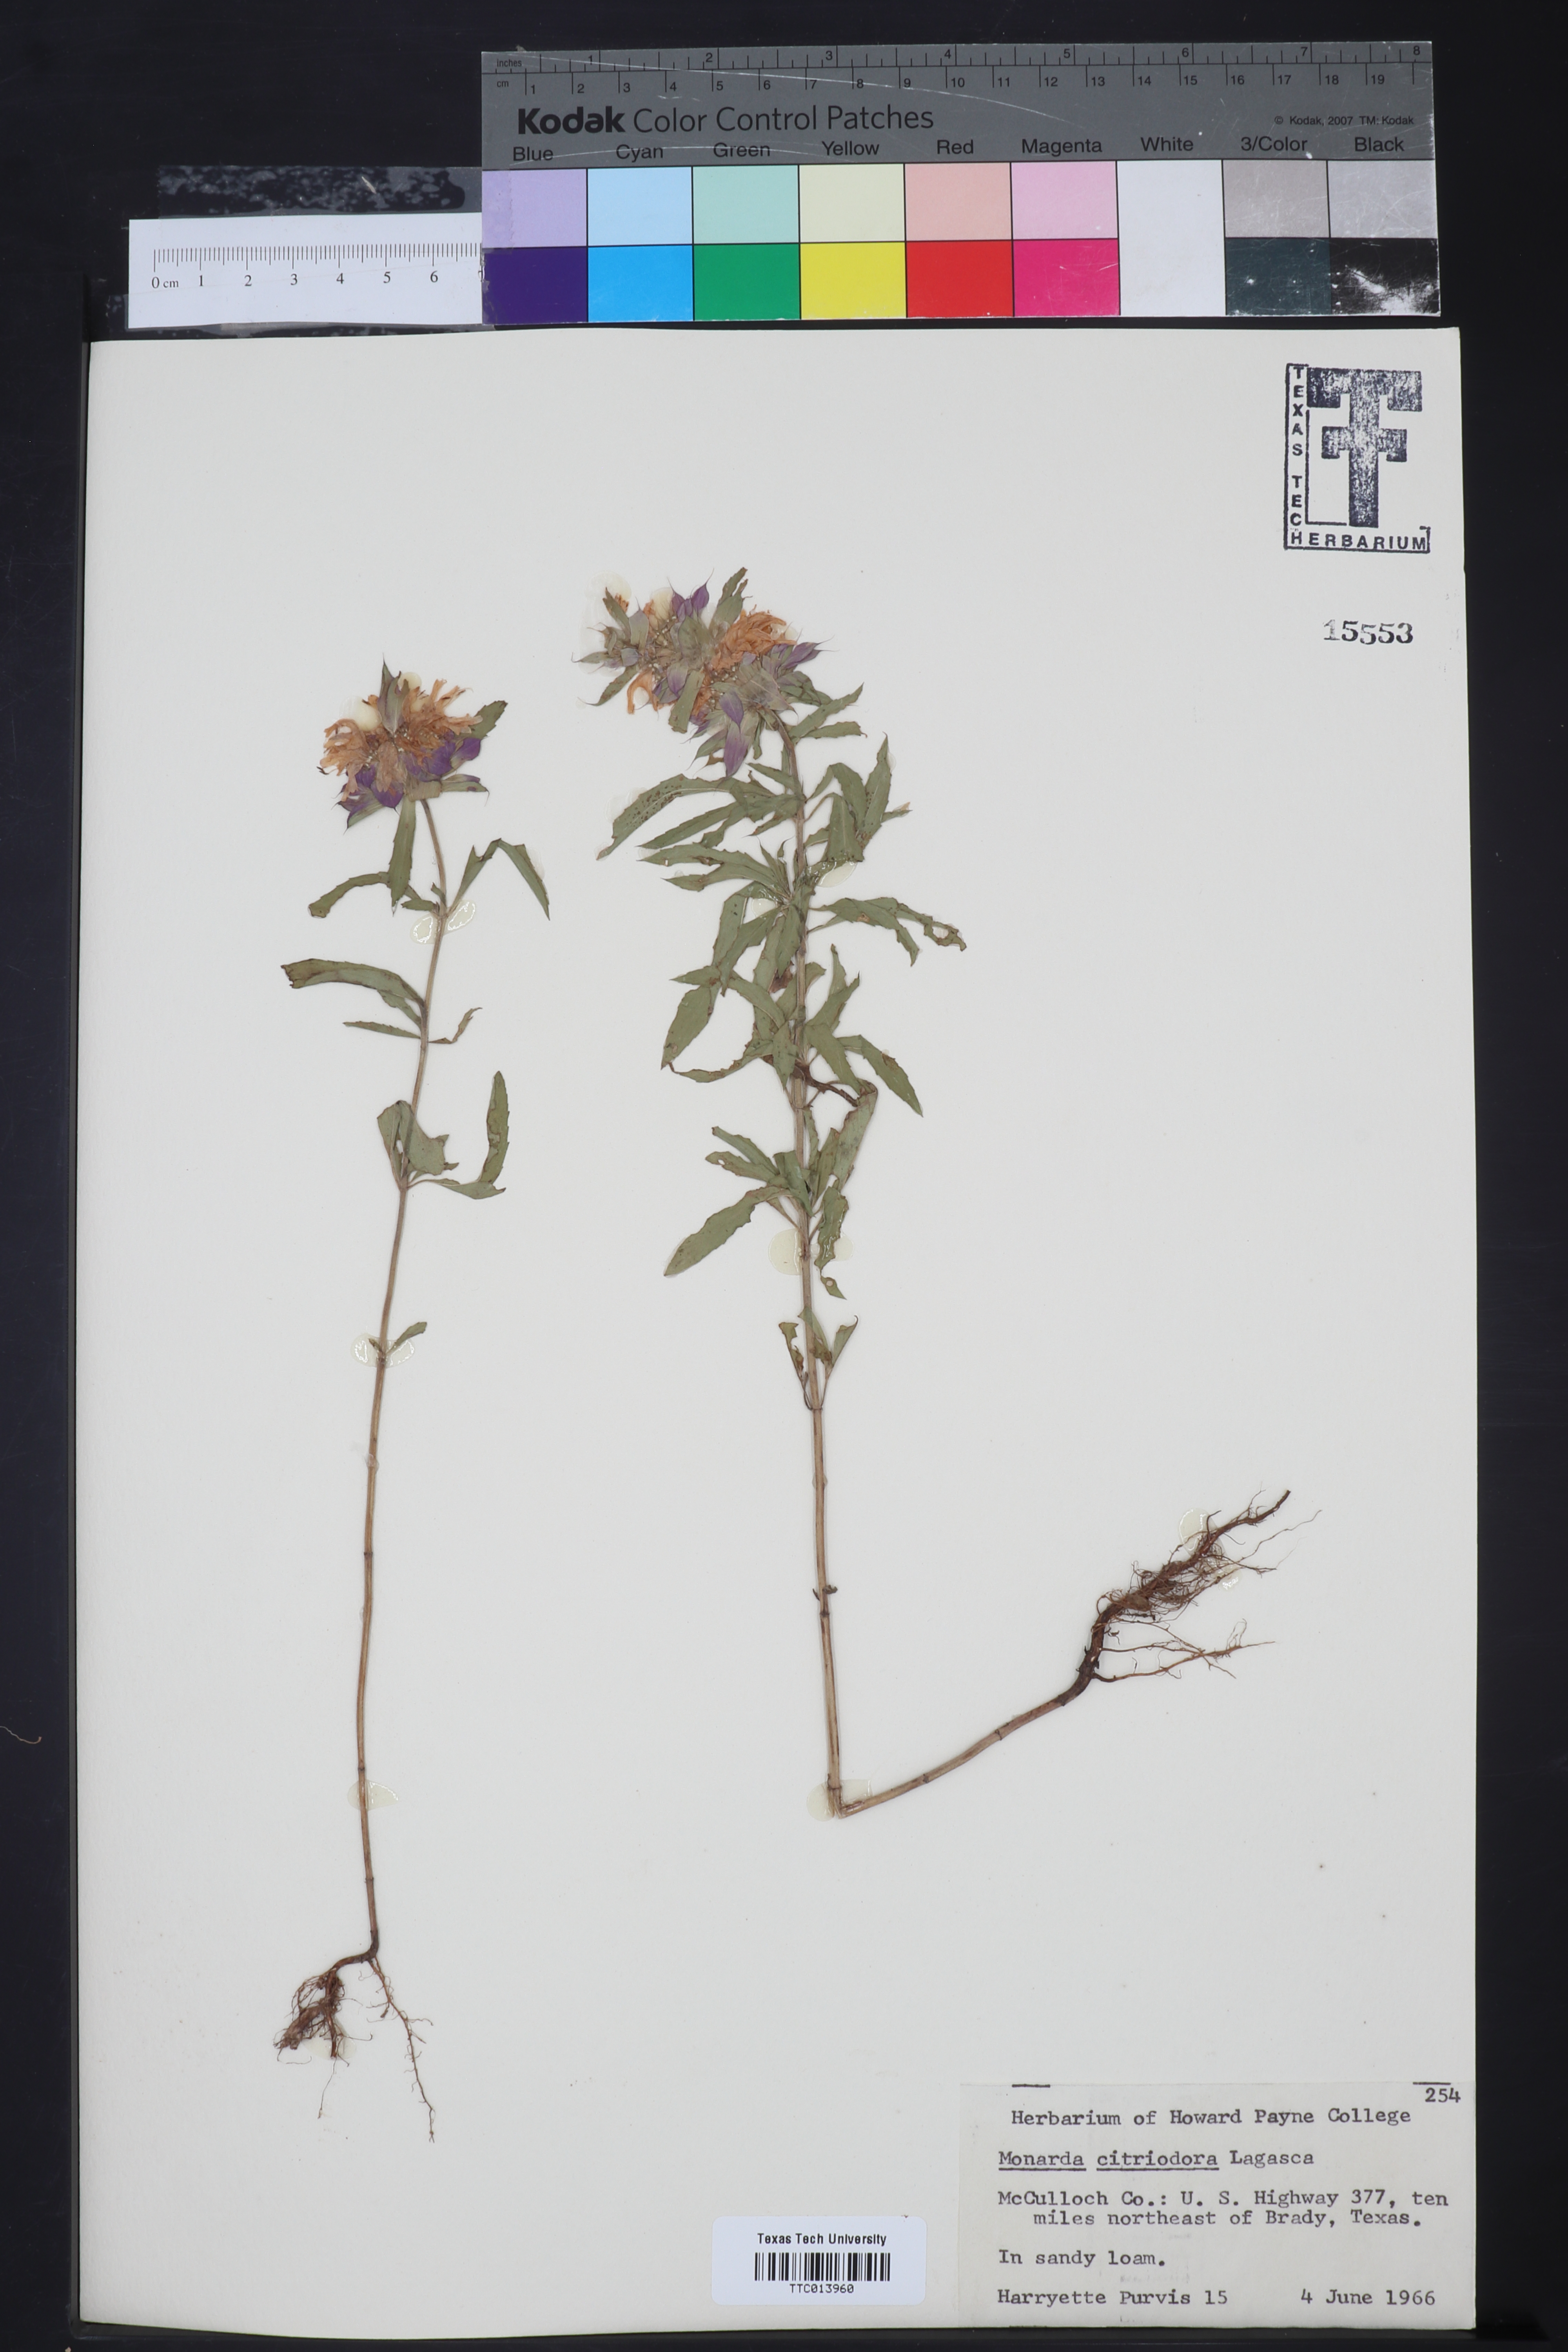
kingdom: Plantae
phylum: Tracheophyta
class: Magnoliopsida
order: Lamiales
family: Lamiaceae
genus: Monarda
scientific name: Monarda citriodora
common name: Lemon beebalm
